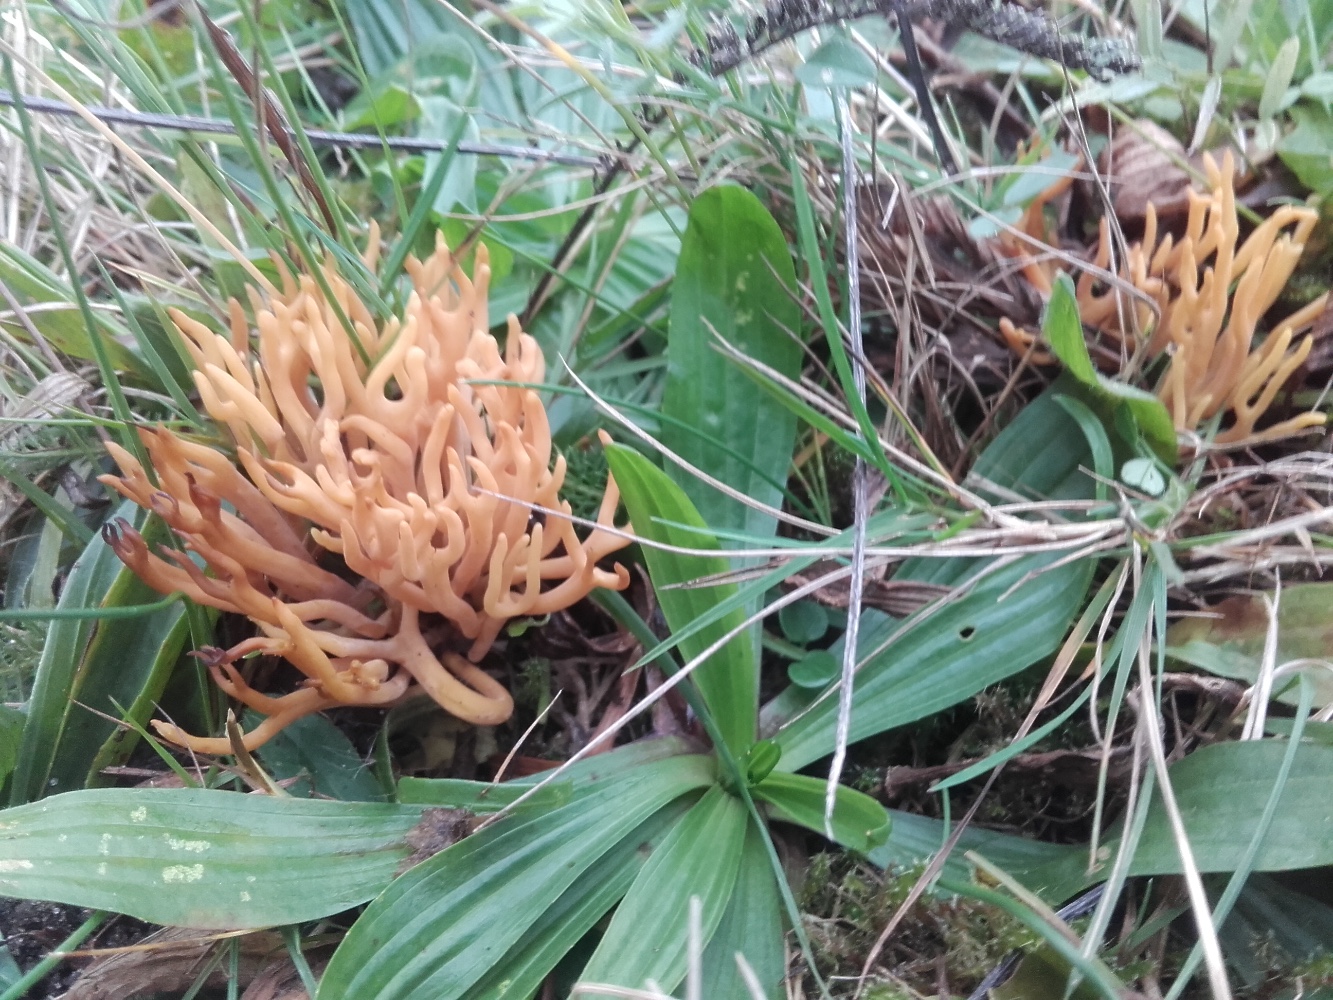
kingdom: Fungi
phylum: Basidiomycota
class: Agaricomycetes
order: Agaricales
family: Clavariaceae
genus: Clavulinopsis
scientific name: Clavulinopsis corniculata
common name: eng-køllesvamp
